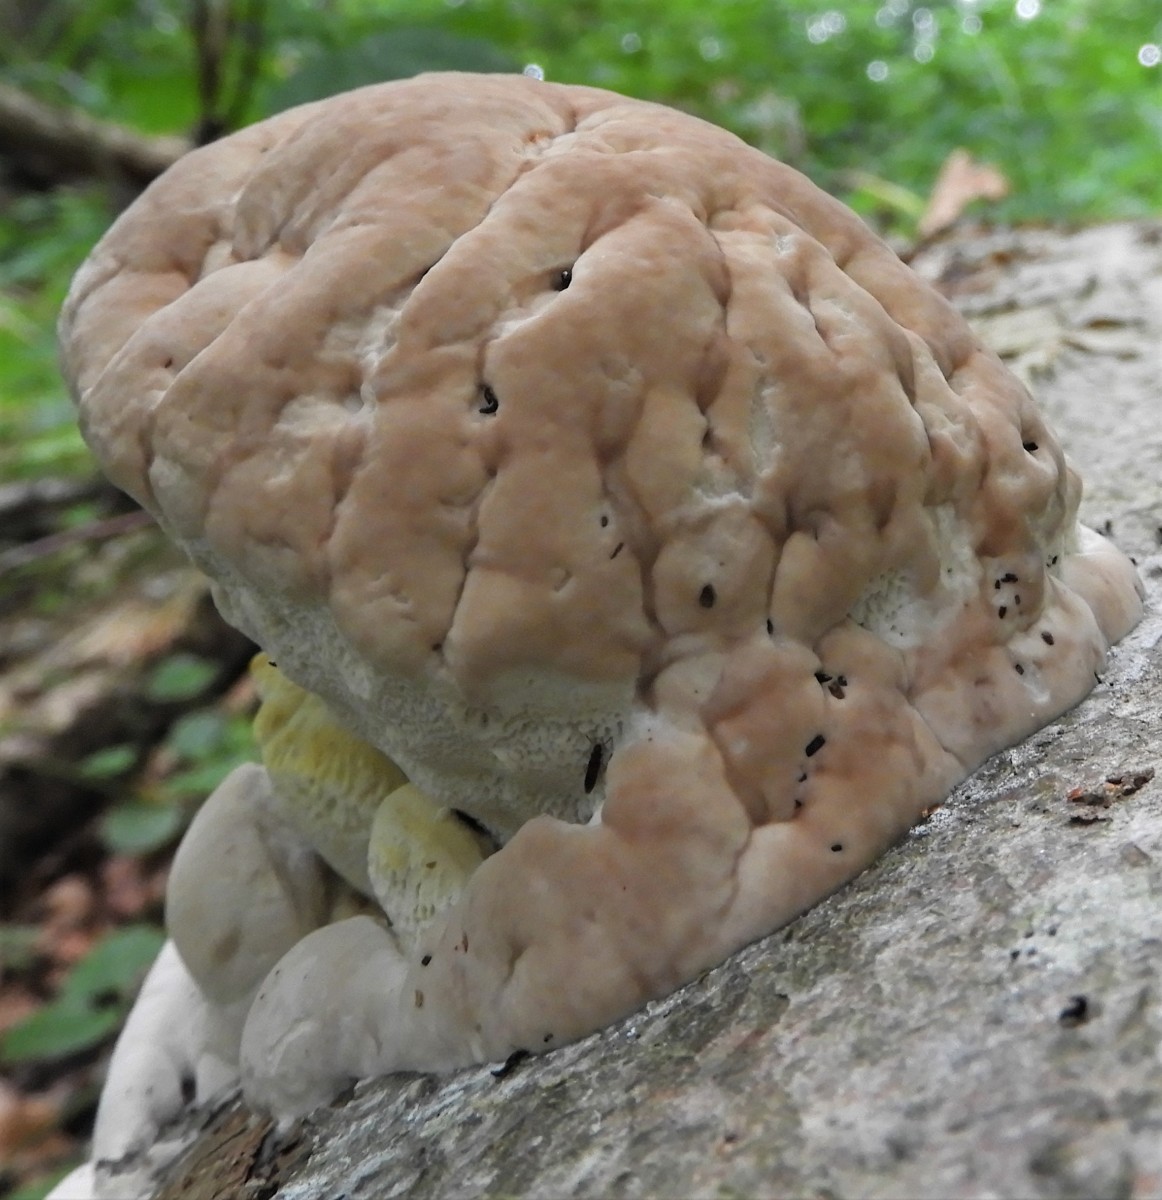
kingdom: Fungi
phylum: Basidiomycota
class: Agaricomycetes
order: Polyporales
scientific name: Polyporales
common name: poresvampordenen
